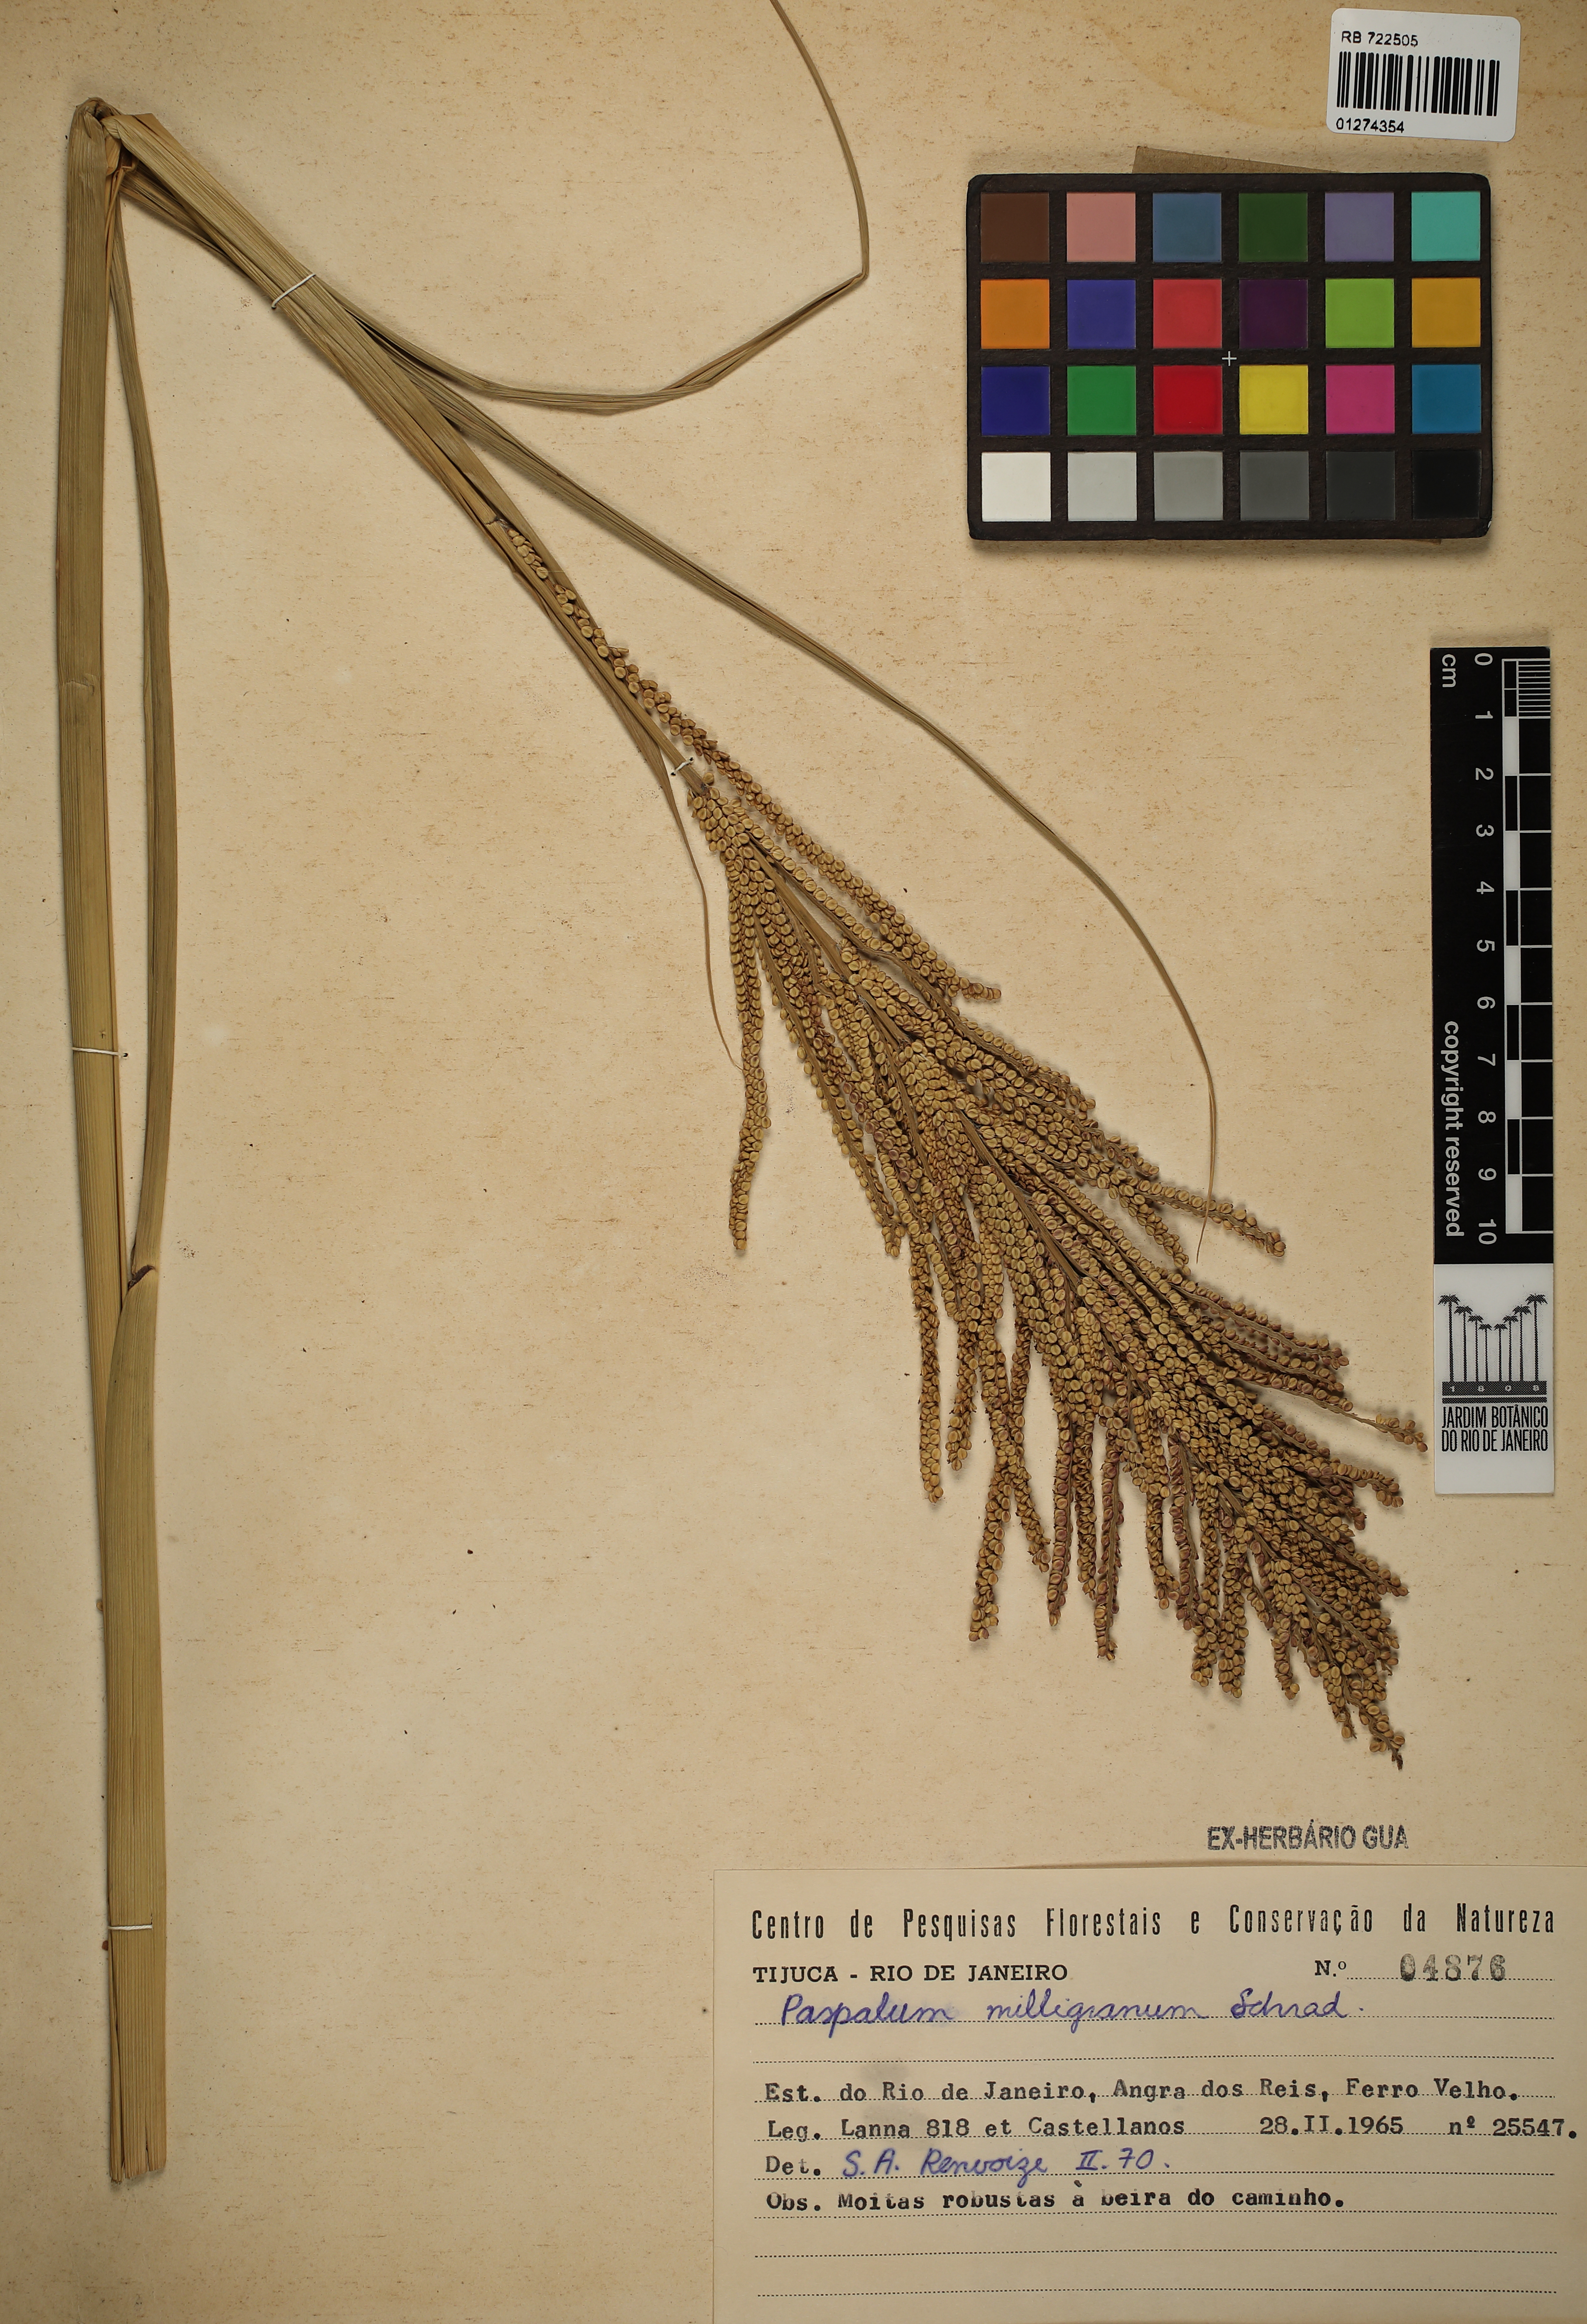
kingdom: Plantae
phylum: Tracheophyta
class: Liliopsida
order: Poales
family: Poaceae
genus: Paspalum
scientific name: Paspalum millegrana
